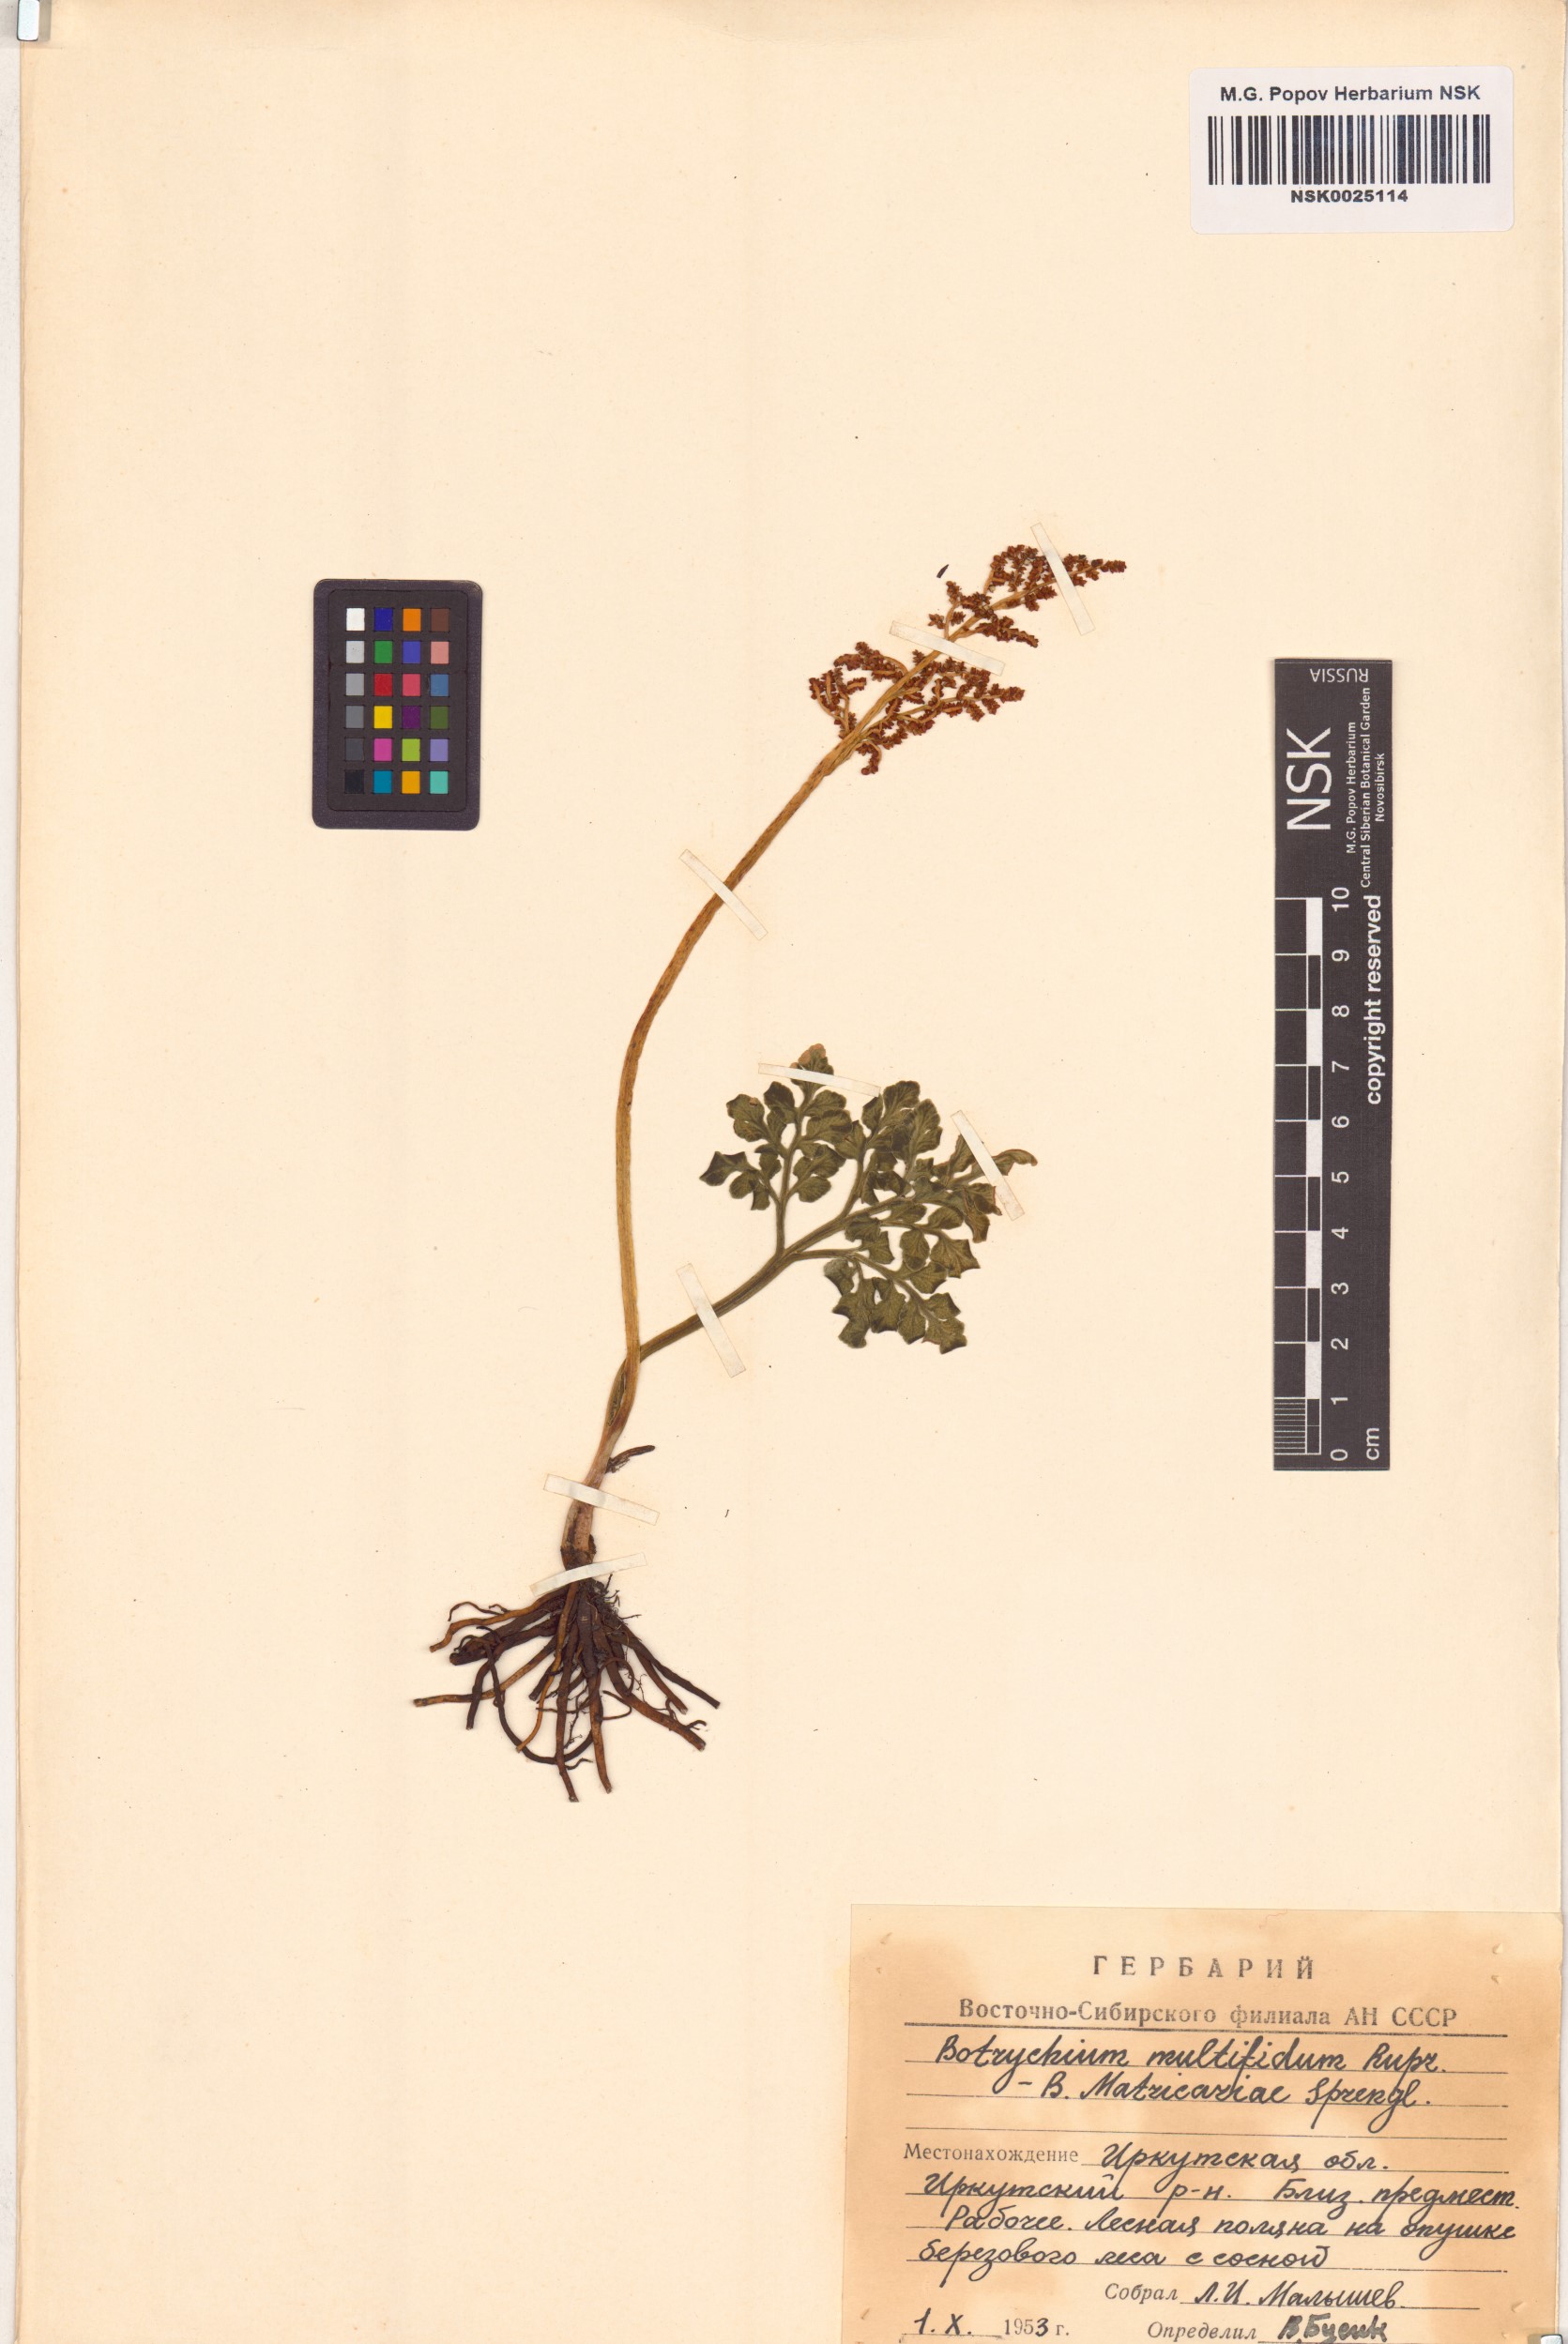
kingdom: Plantae
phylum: Tracheophyta
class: Polypodiopsida
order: Ophioglossales
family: Ophioglossaceae
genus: Sceptridium
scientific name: Sceptridium multifidum
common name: Leathery grape fern
